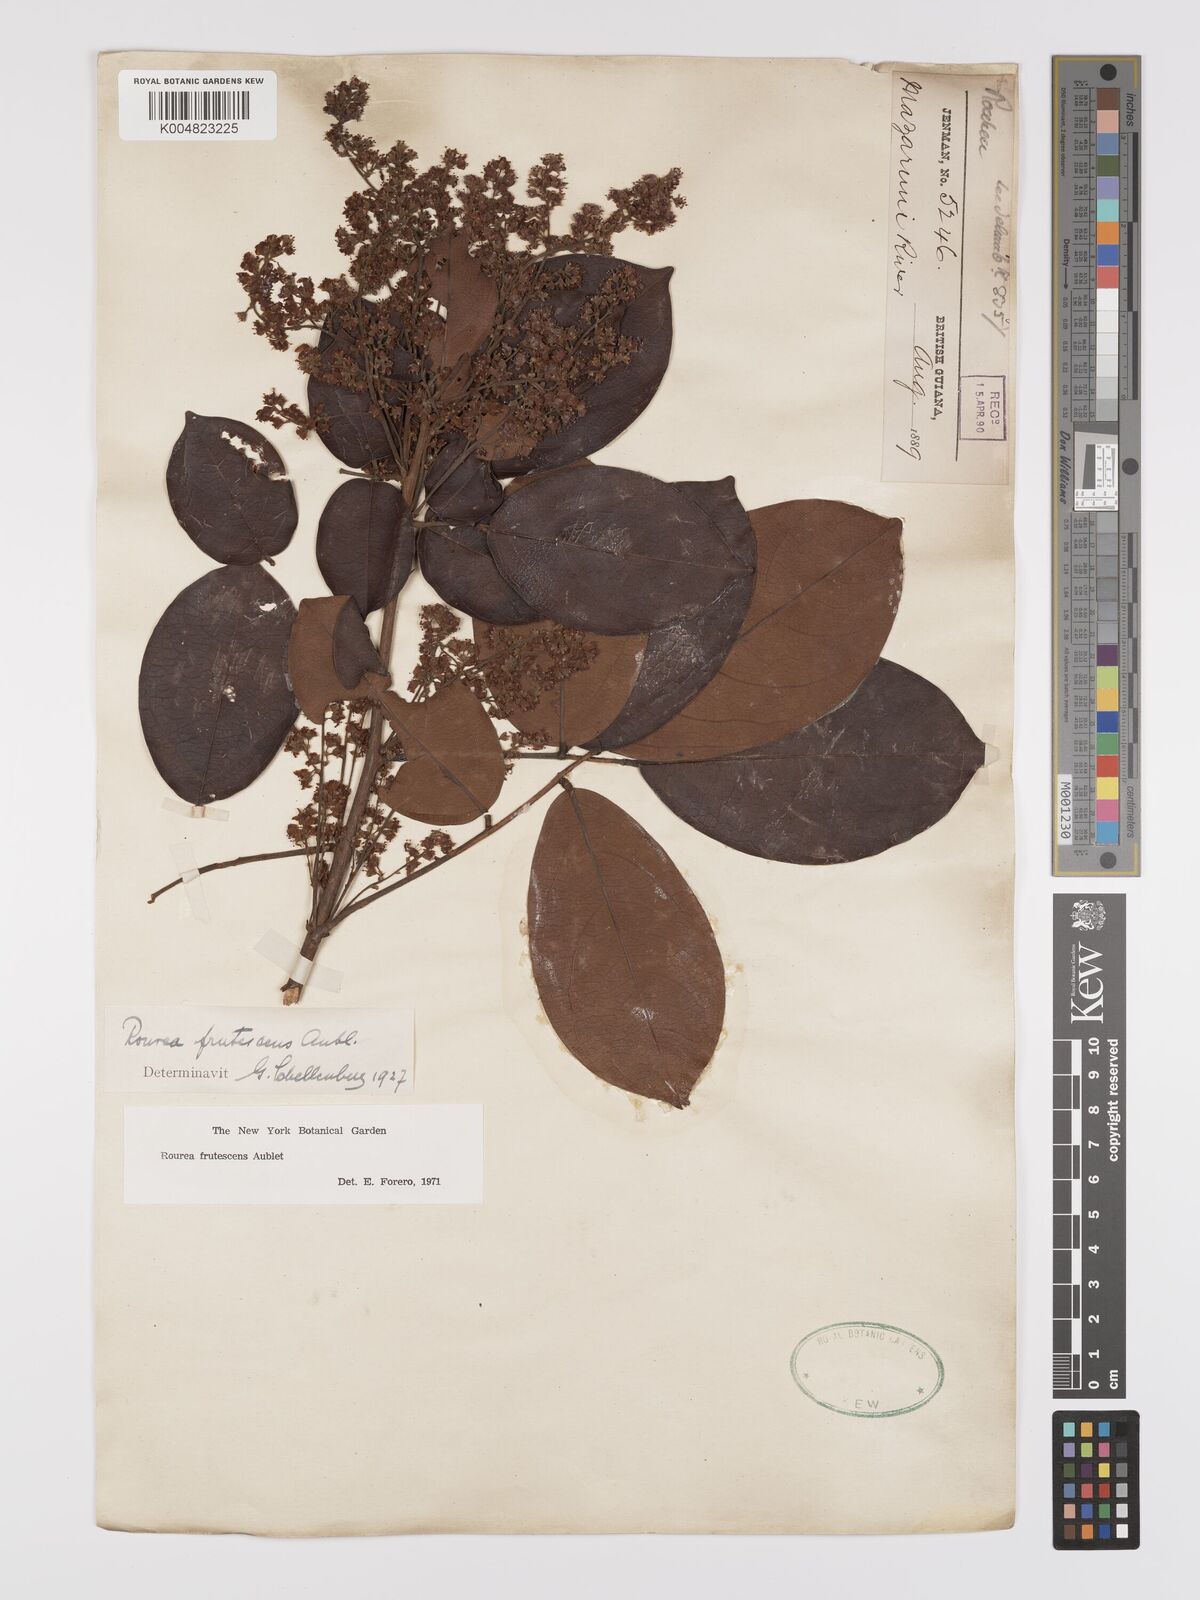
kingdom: Plantae
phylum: Tracheophyta
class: Magnoliopsida
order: Oxalidales
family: Connaraceae
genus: Rourea
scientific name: Rourea frutescens
